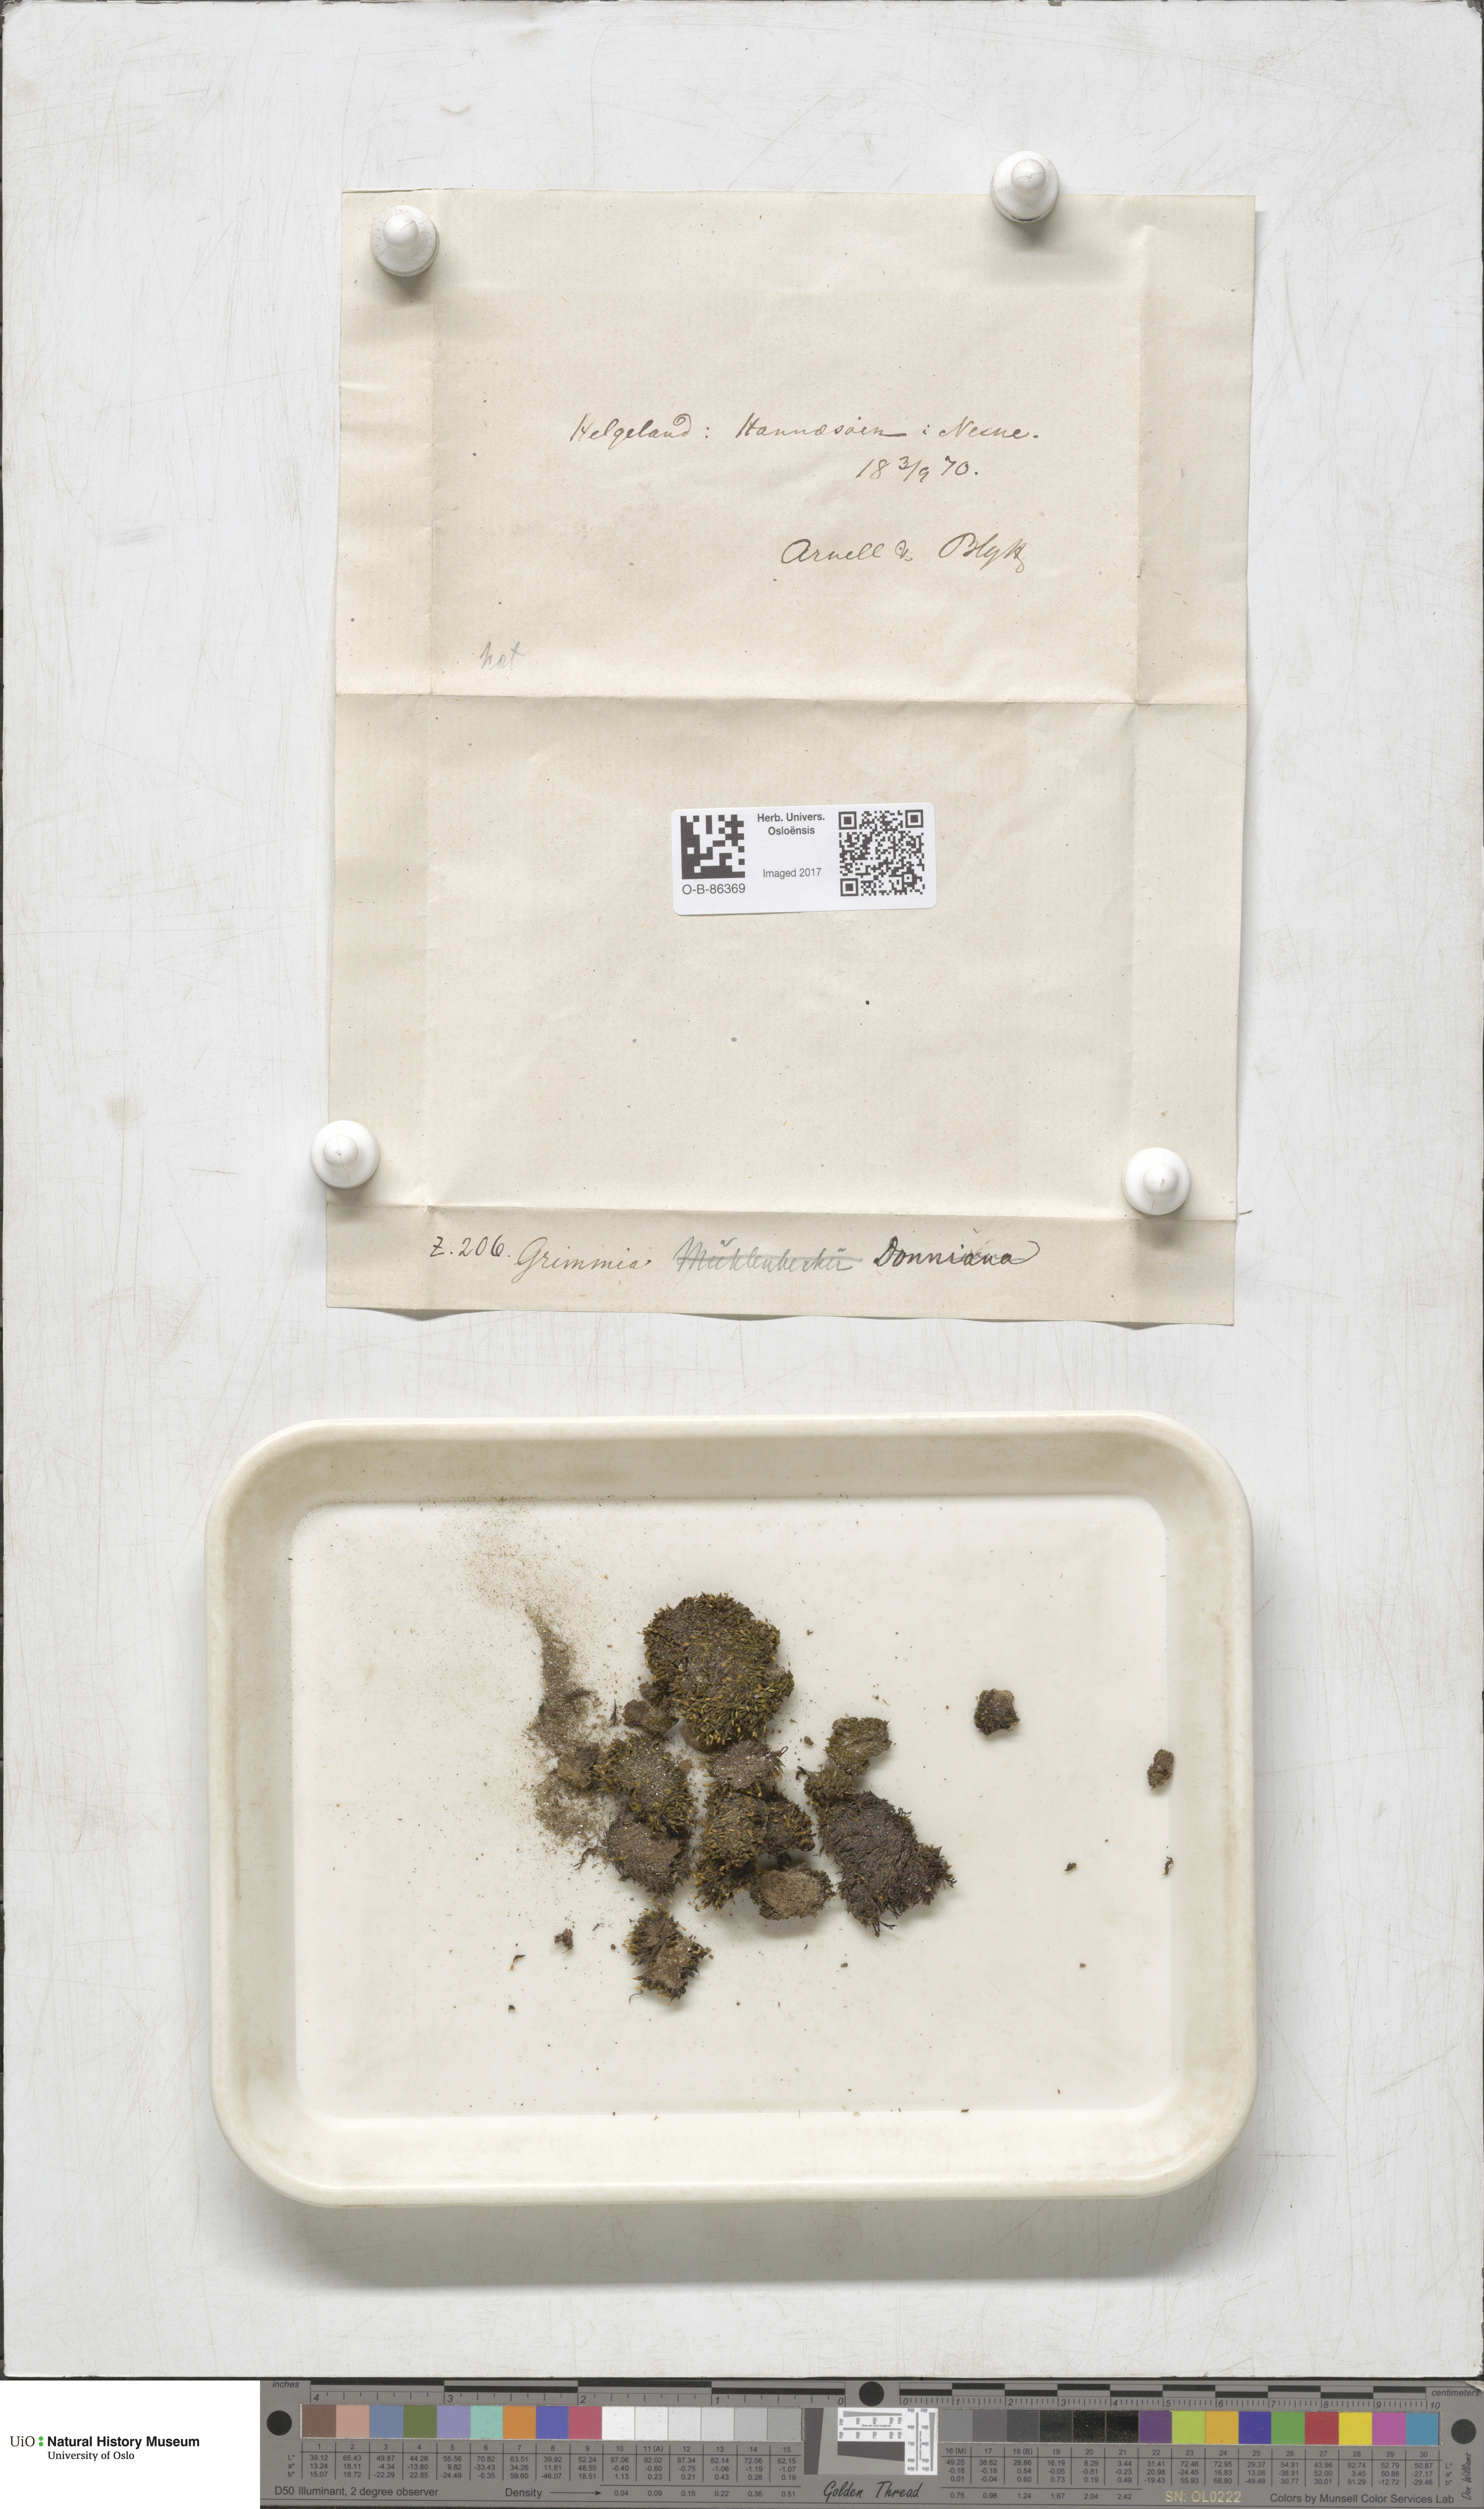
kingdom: Plantae
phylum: Bryophyta
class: Bryopsida
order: Grimmiales
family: Grimmiaceae
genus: Grimmia
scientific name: Grimmia donniana
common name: Donn's grimmia
